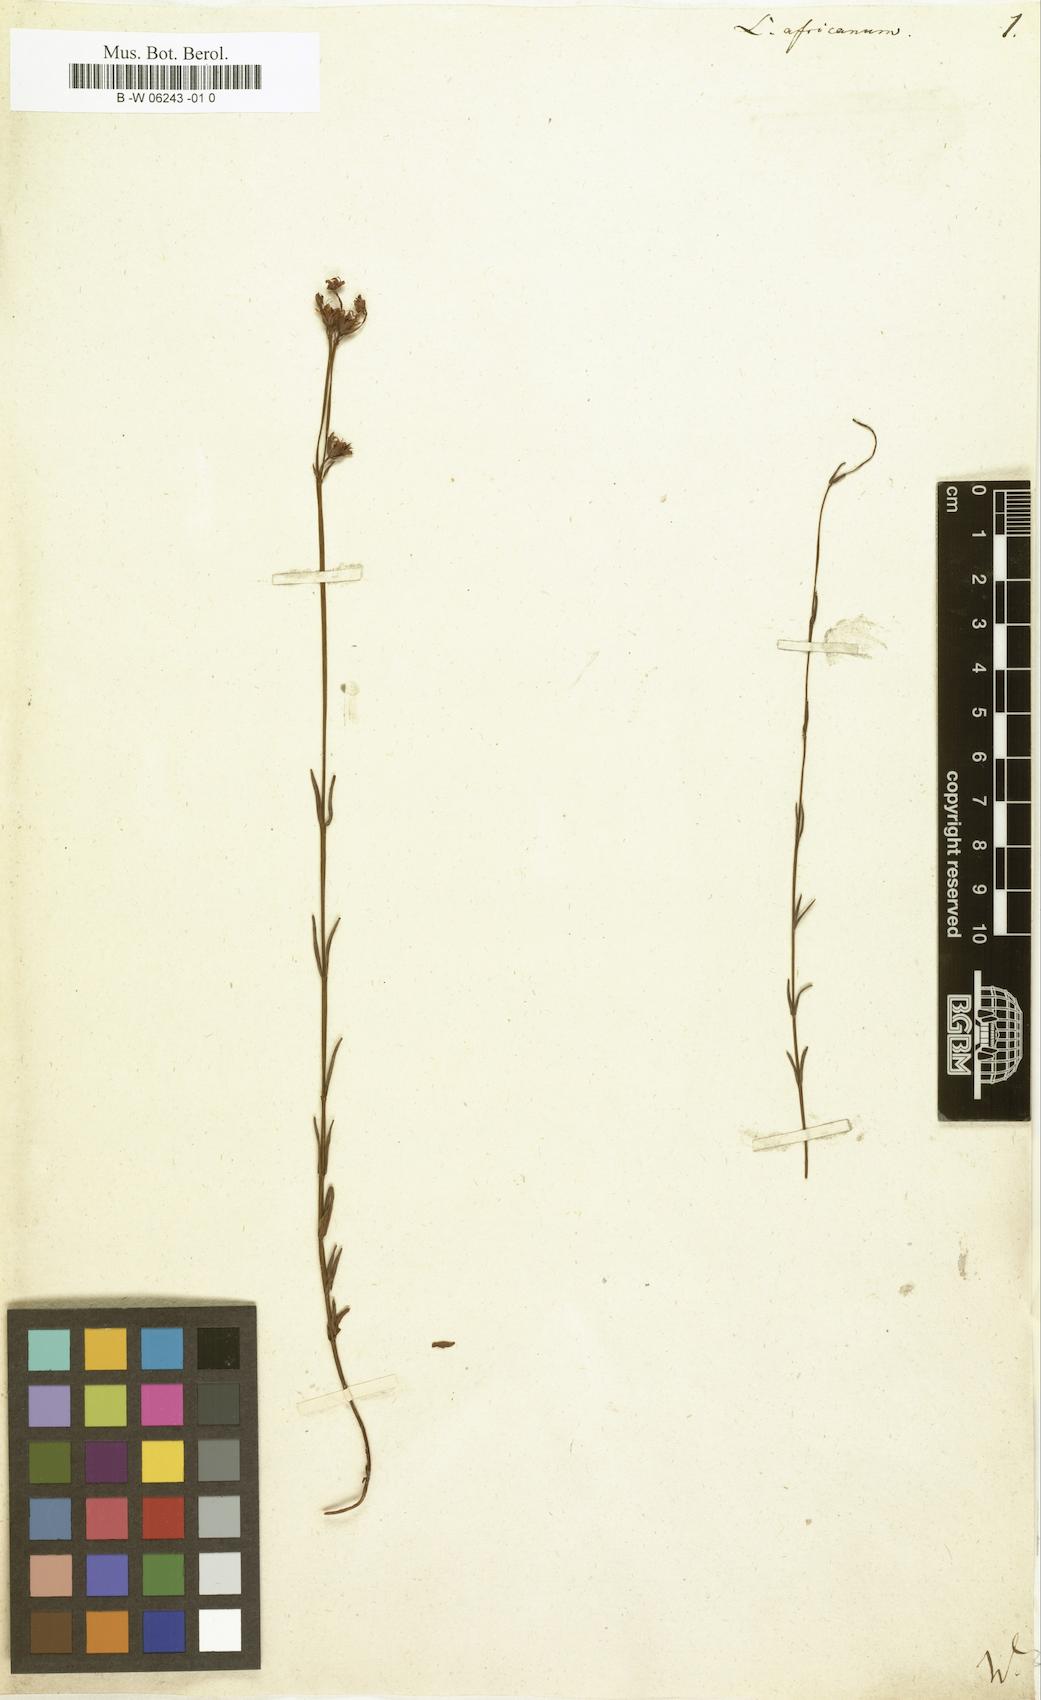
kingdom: Plantae
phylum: Tracheophyta
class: Magnoliopsida
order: Malpighiales
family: Linaceae
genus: Linum
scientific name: Linum africanum
